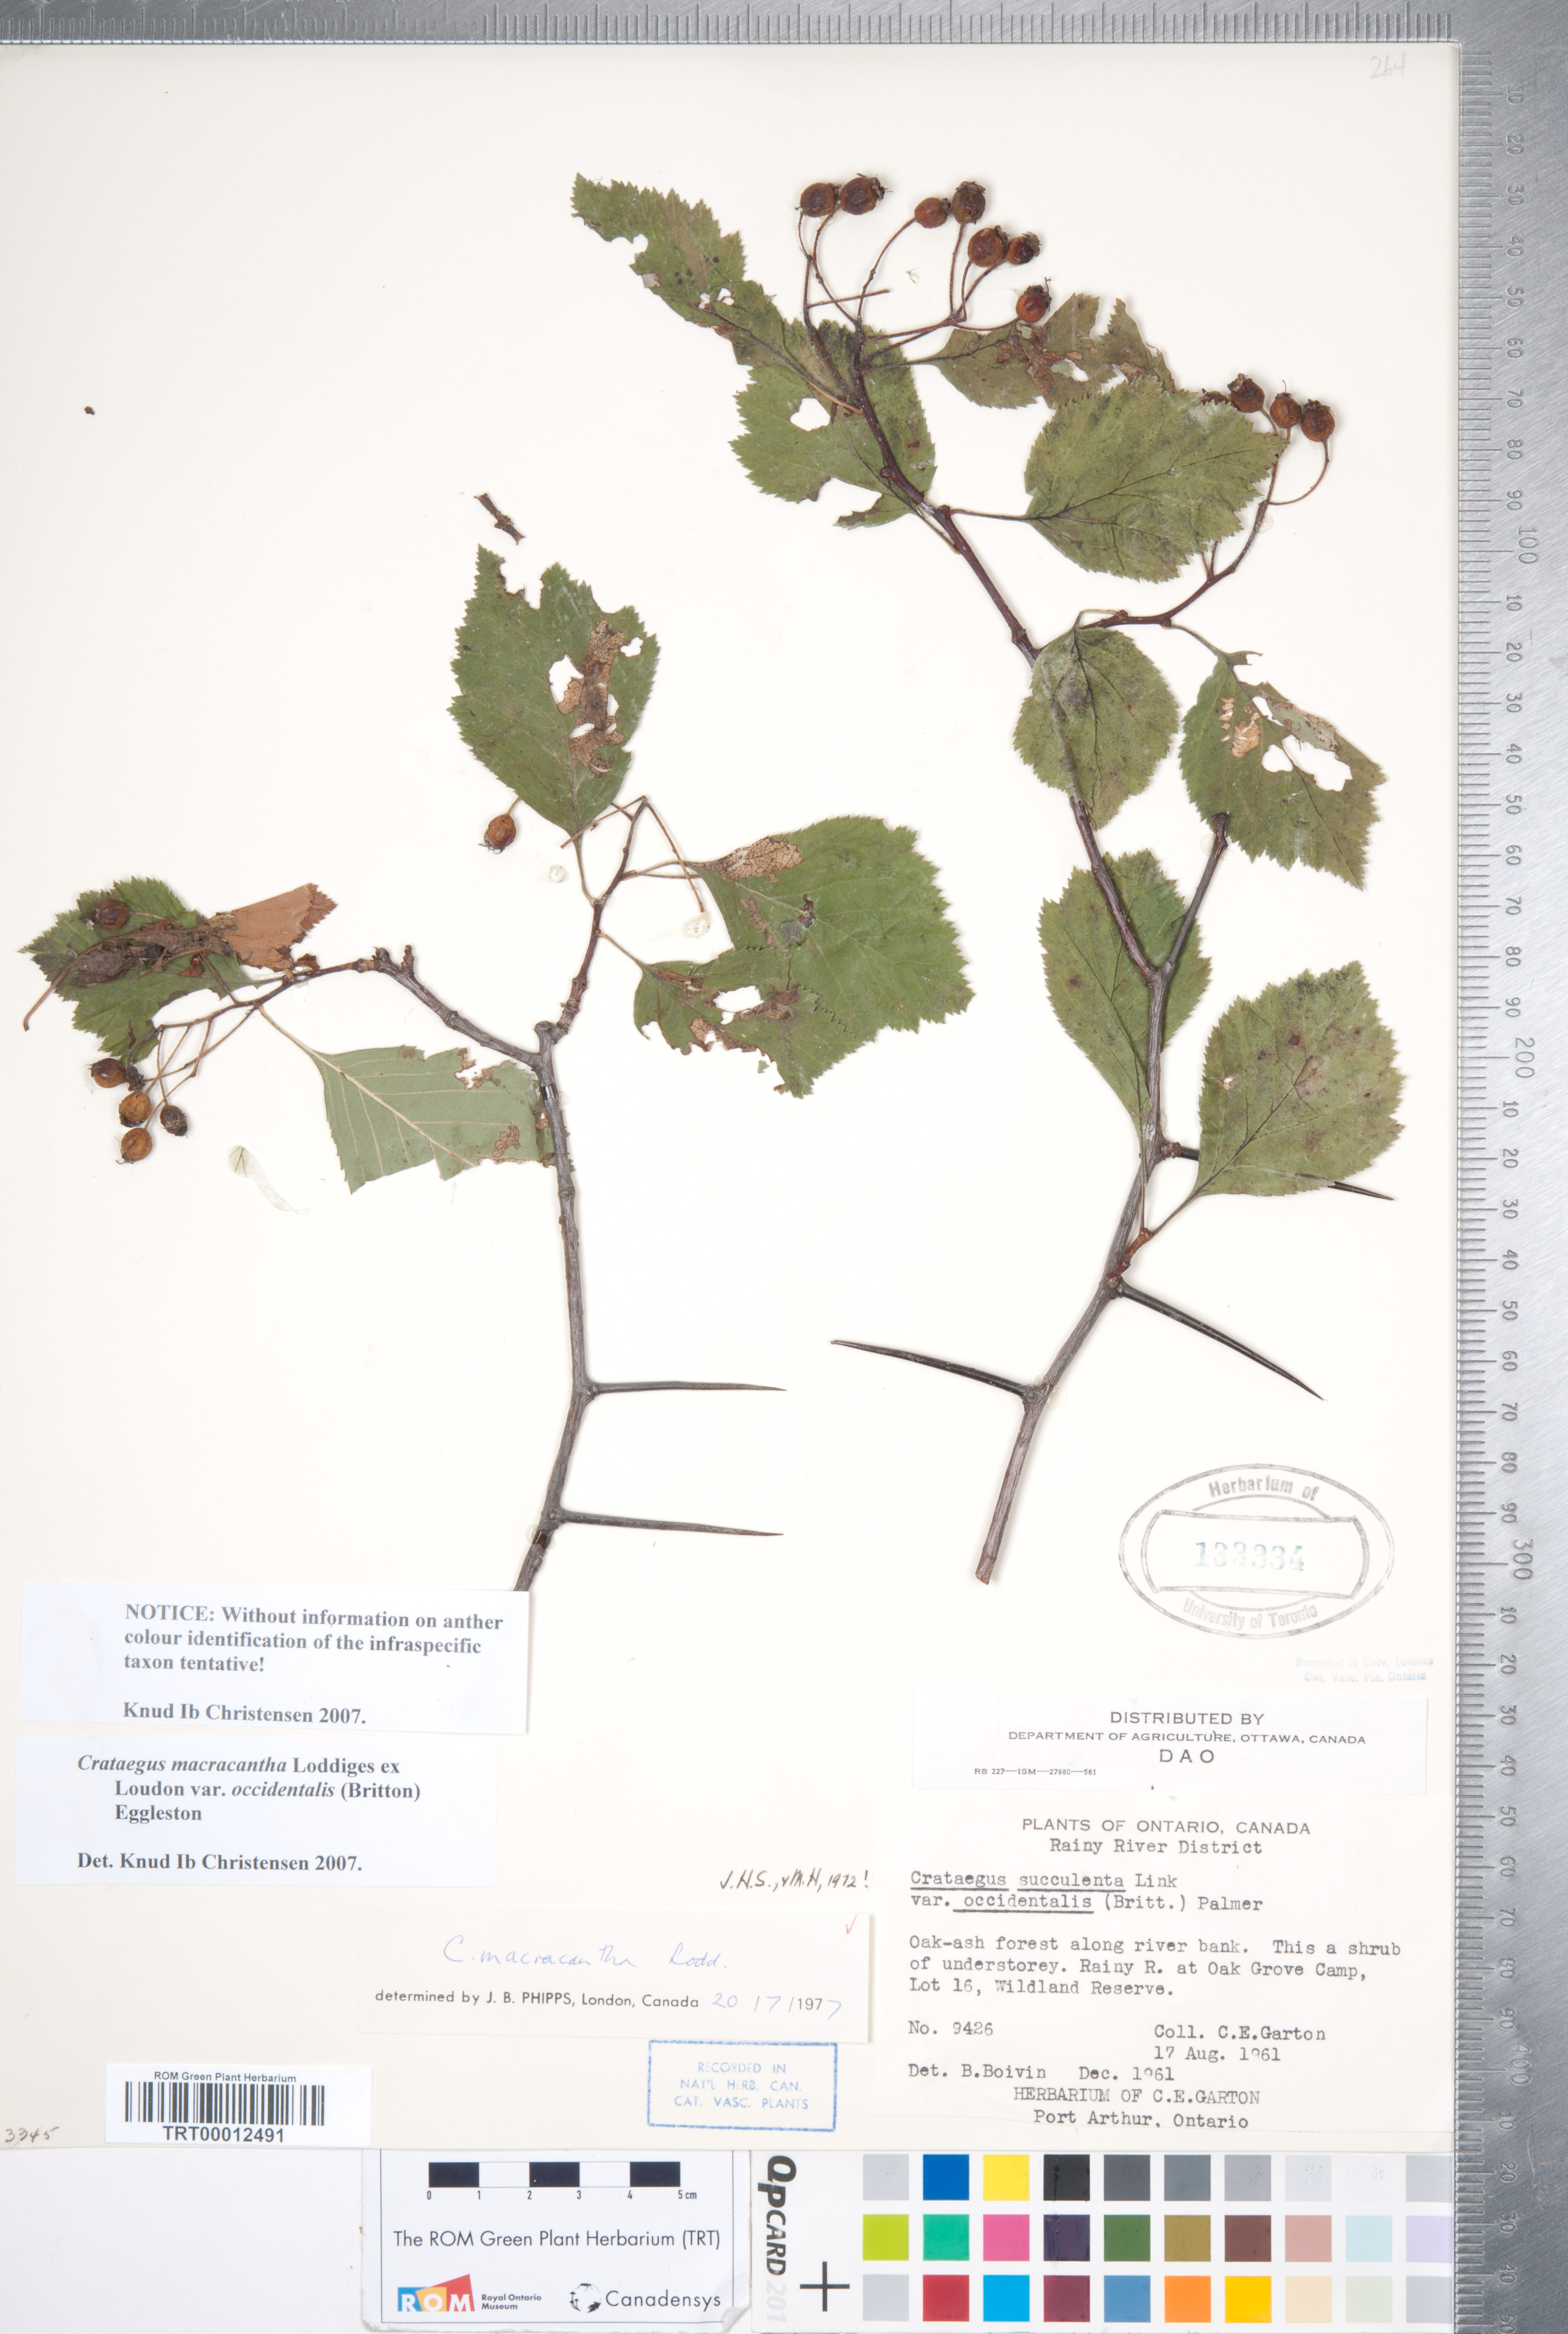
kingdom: Plantae
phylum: Tracheophyta
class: Magnoliopsida
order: Rosales
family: Rosaceae
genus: Crataegus
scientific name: Crataegus macracantha
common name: Large-thorn hawthorn
